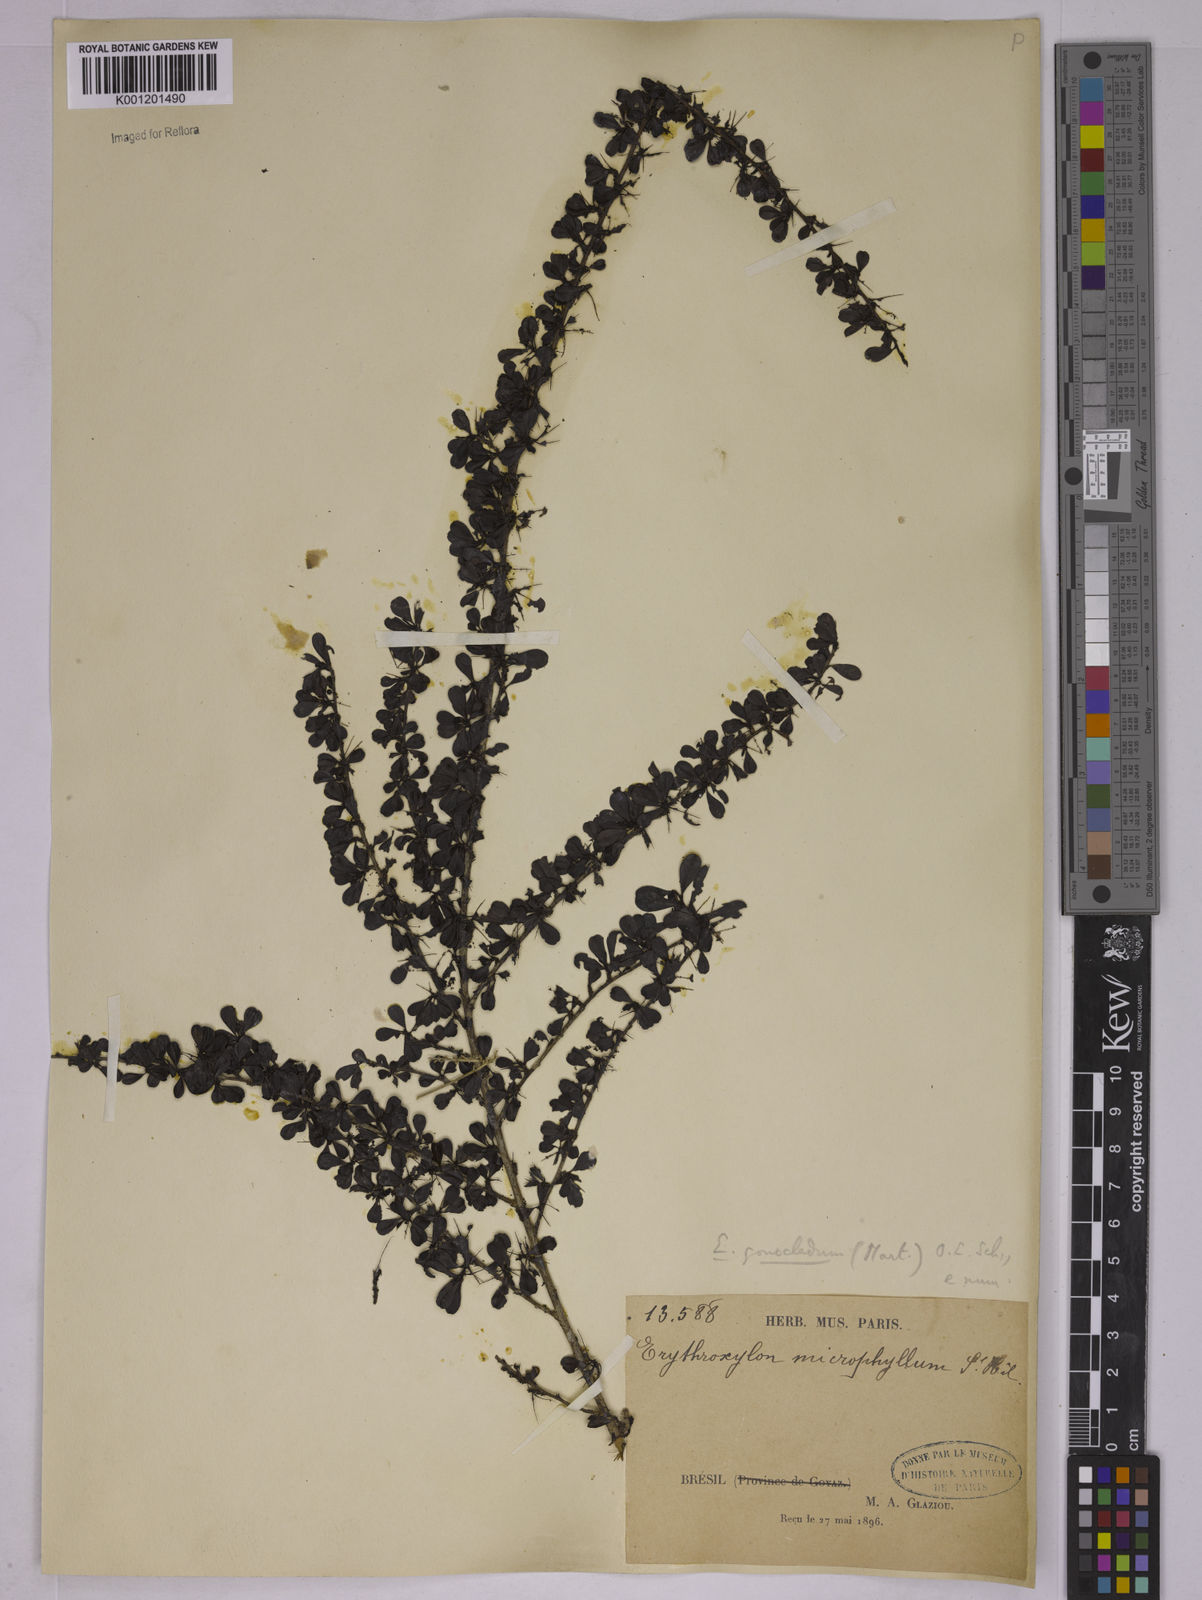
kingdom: Plantae
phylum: Tracheophyta
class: Magnoliopsida
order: Malpighiales
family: Erythroxylaceae
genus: Erythroxylum
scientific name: Erythroxylum
